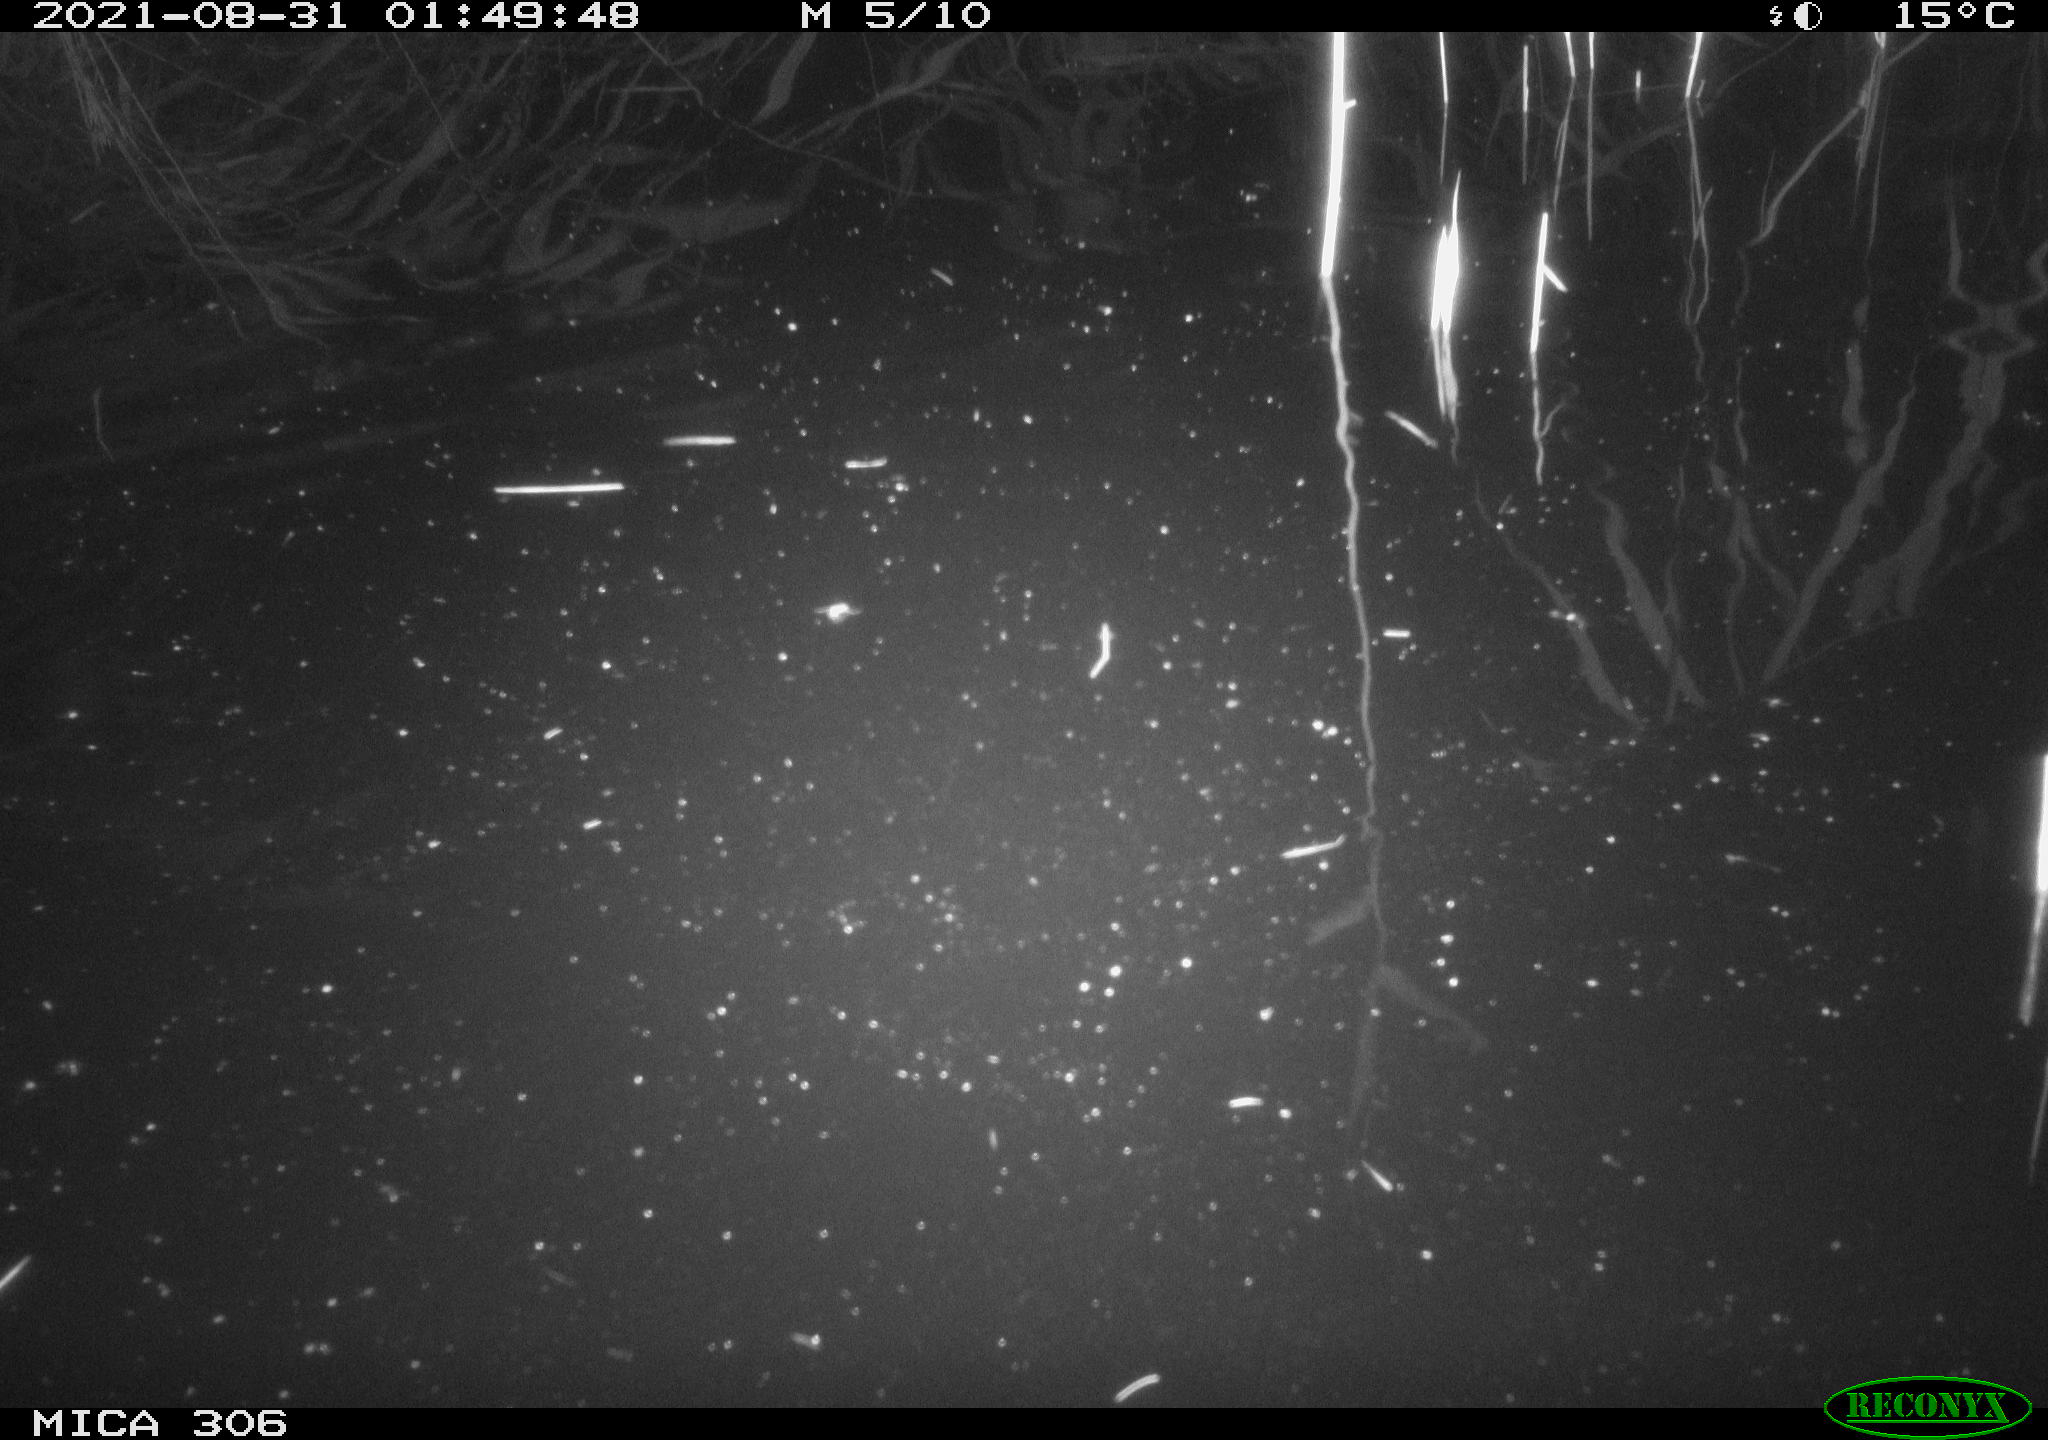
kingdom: Animalia
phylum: Chordata
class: Mammalia
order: Rodentia
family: Muridae
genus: Rattus
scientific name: Rattus norvegicus
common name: Brown rat
